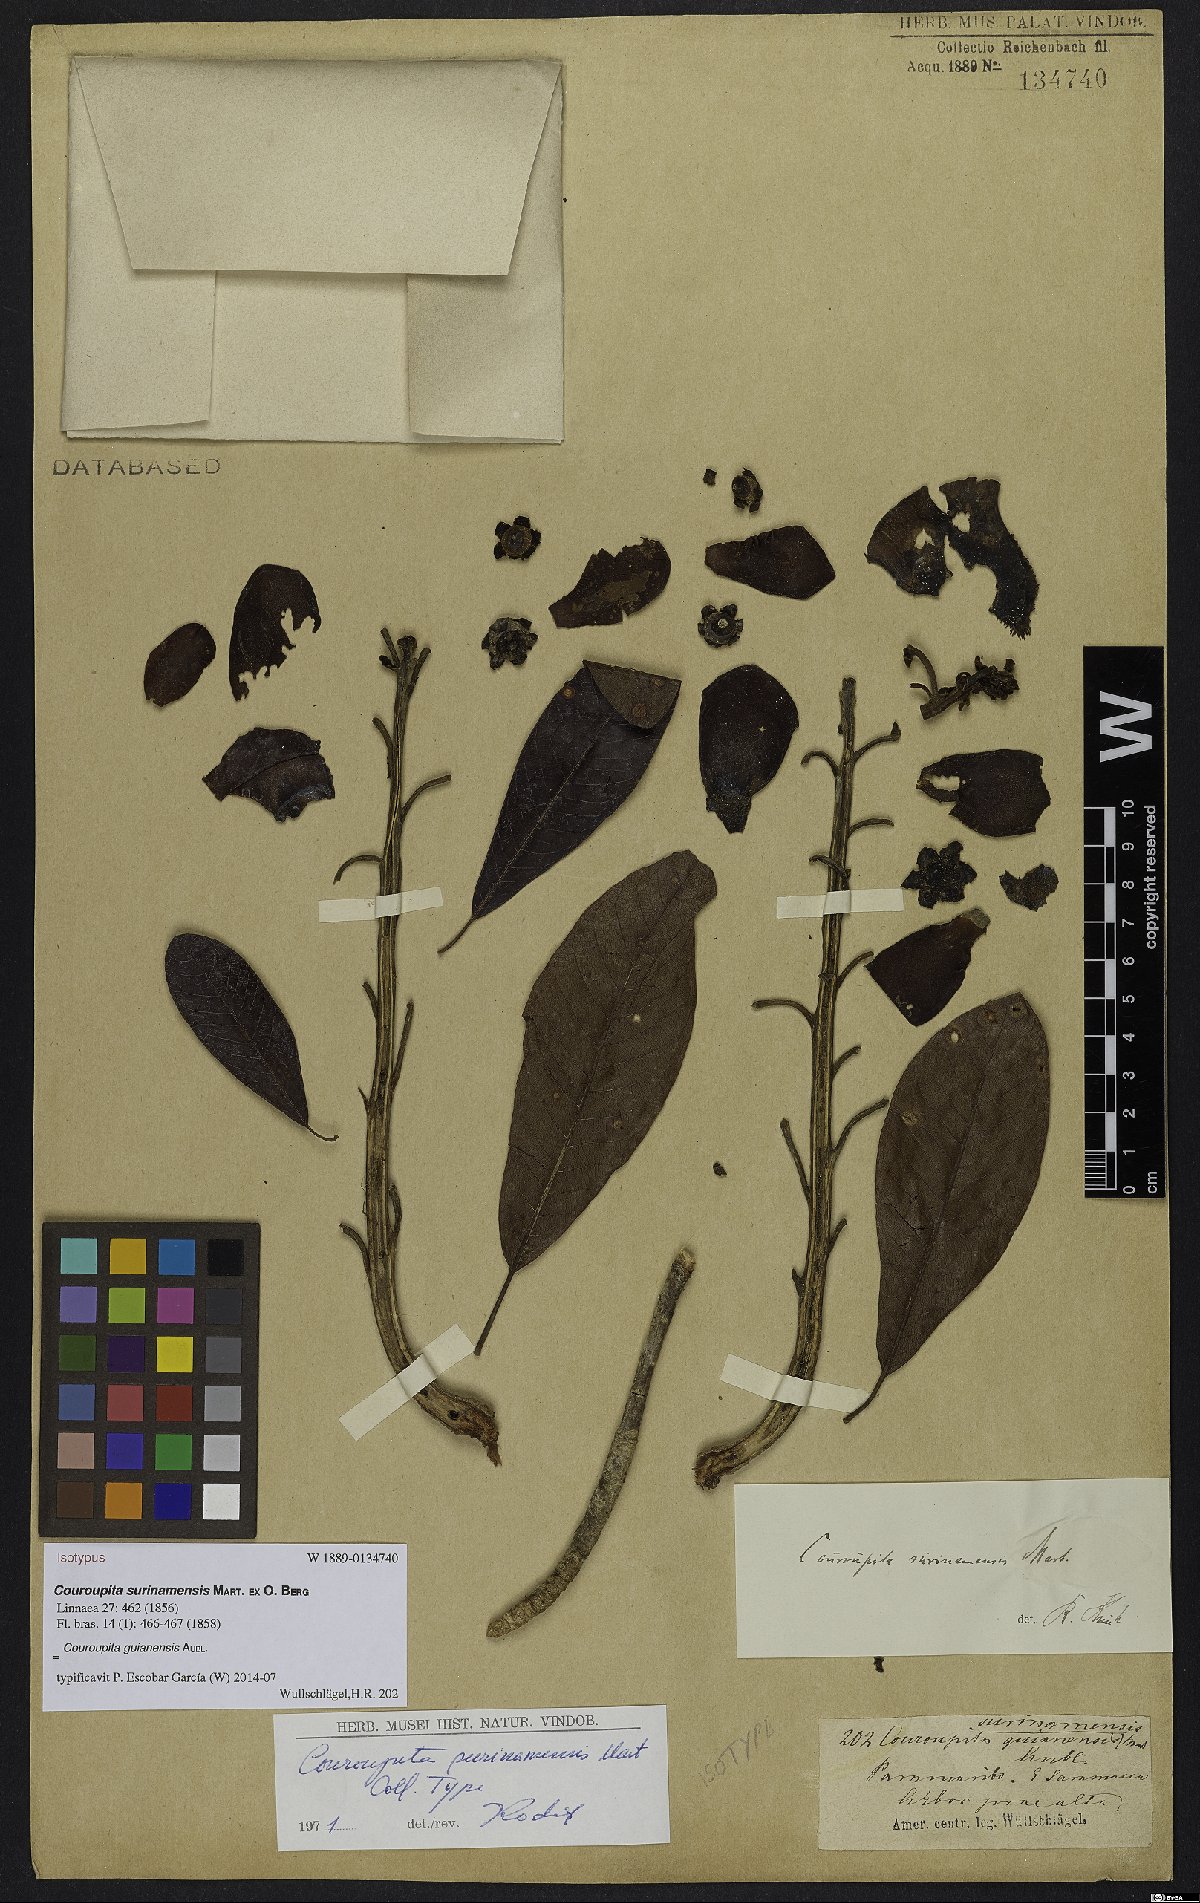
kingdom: Plantae
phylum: Tracheophyta
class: Magnoliopsida
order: Ericales
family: Lecythidaceae
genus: Couroupita
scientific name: Couroupita guianensis
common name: Cannonball tree
